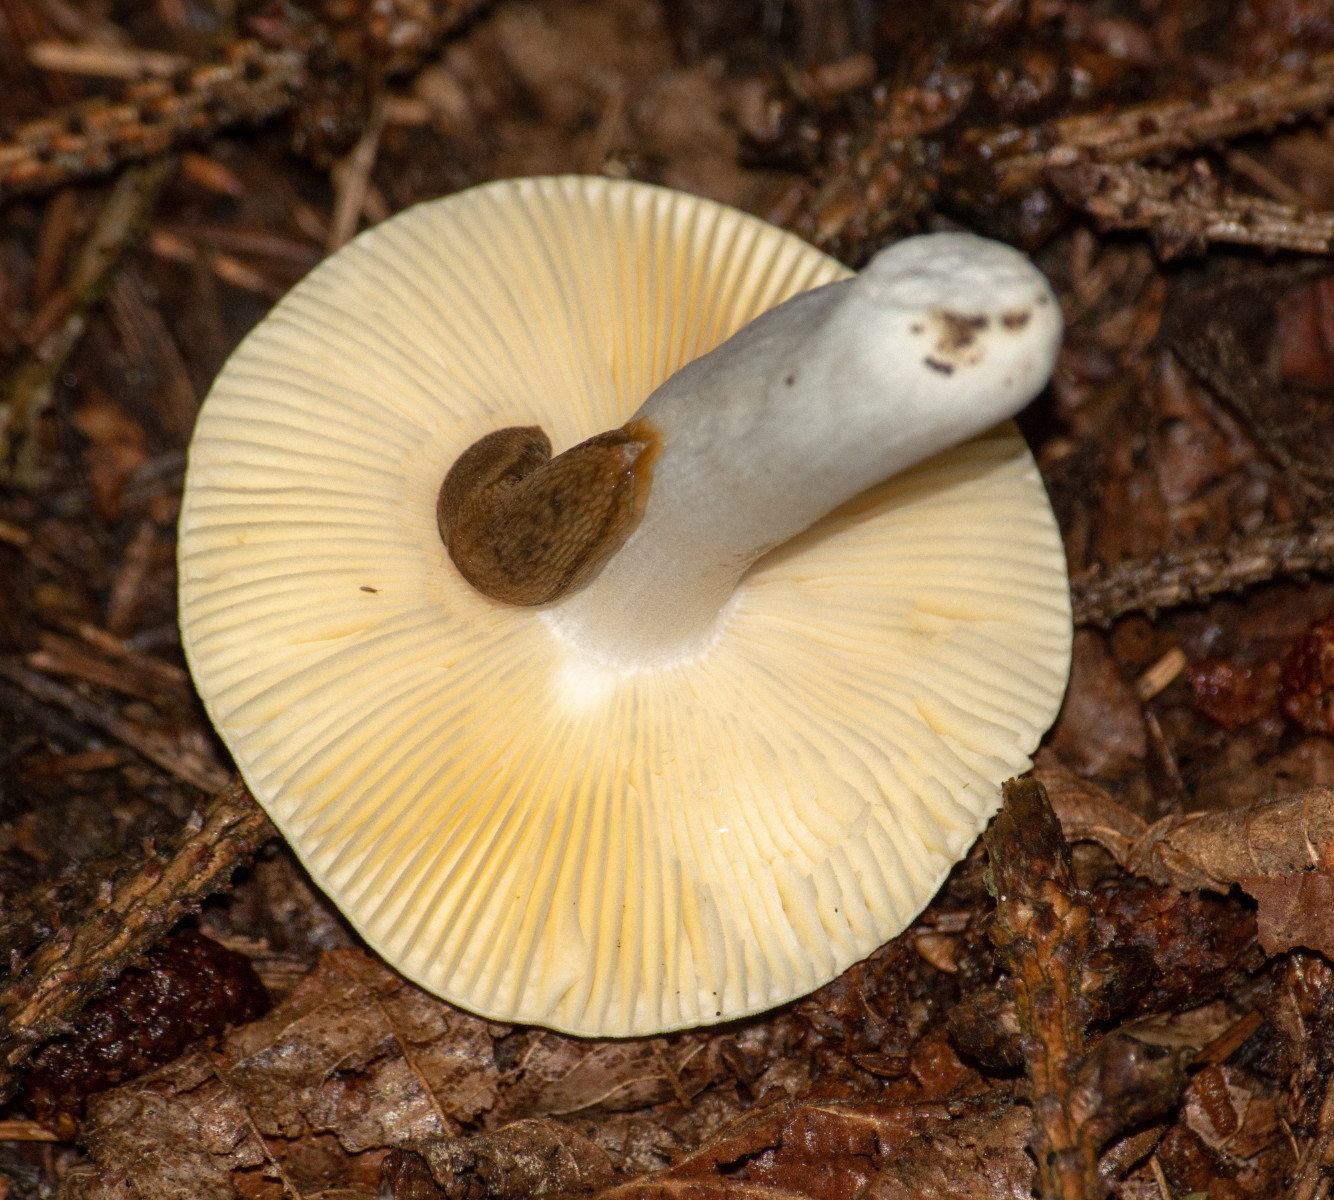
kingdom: Fungi
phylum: Basidiomycota
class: Agaricomycetes
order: Russulales
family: Russulaceae
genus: Russula
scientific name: Russula
